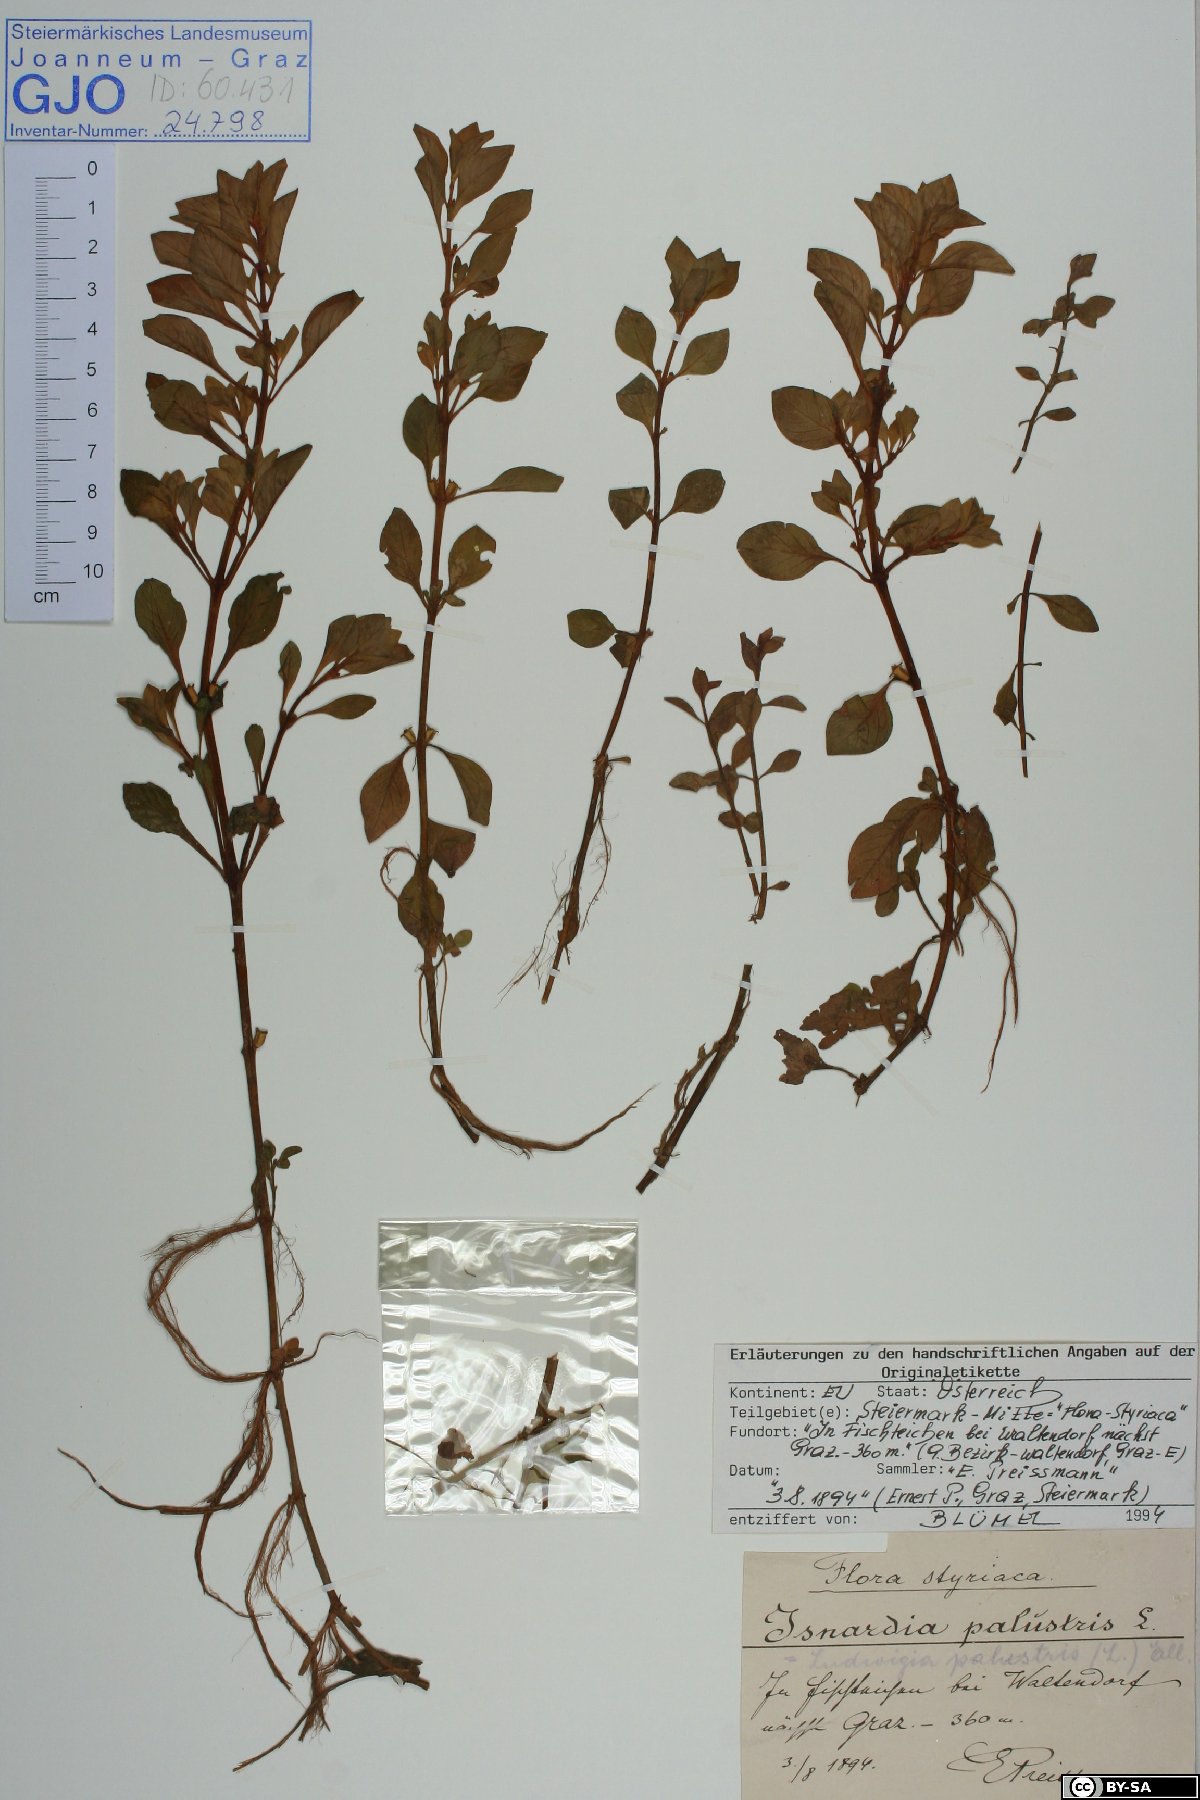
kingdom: Plantae
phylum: Tracheophyta
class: Magnoliopsida
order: Myrtales
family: Onagraceae
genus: Ludwigia
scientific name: Ludwigia palustris
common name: Hampshire-purslane
